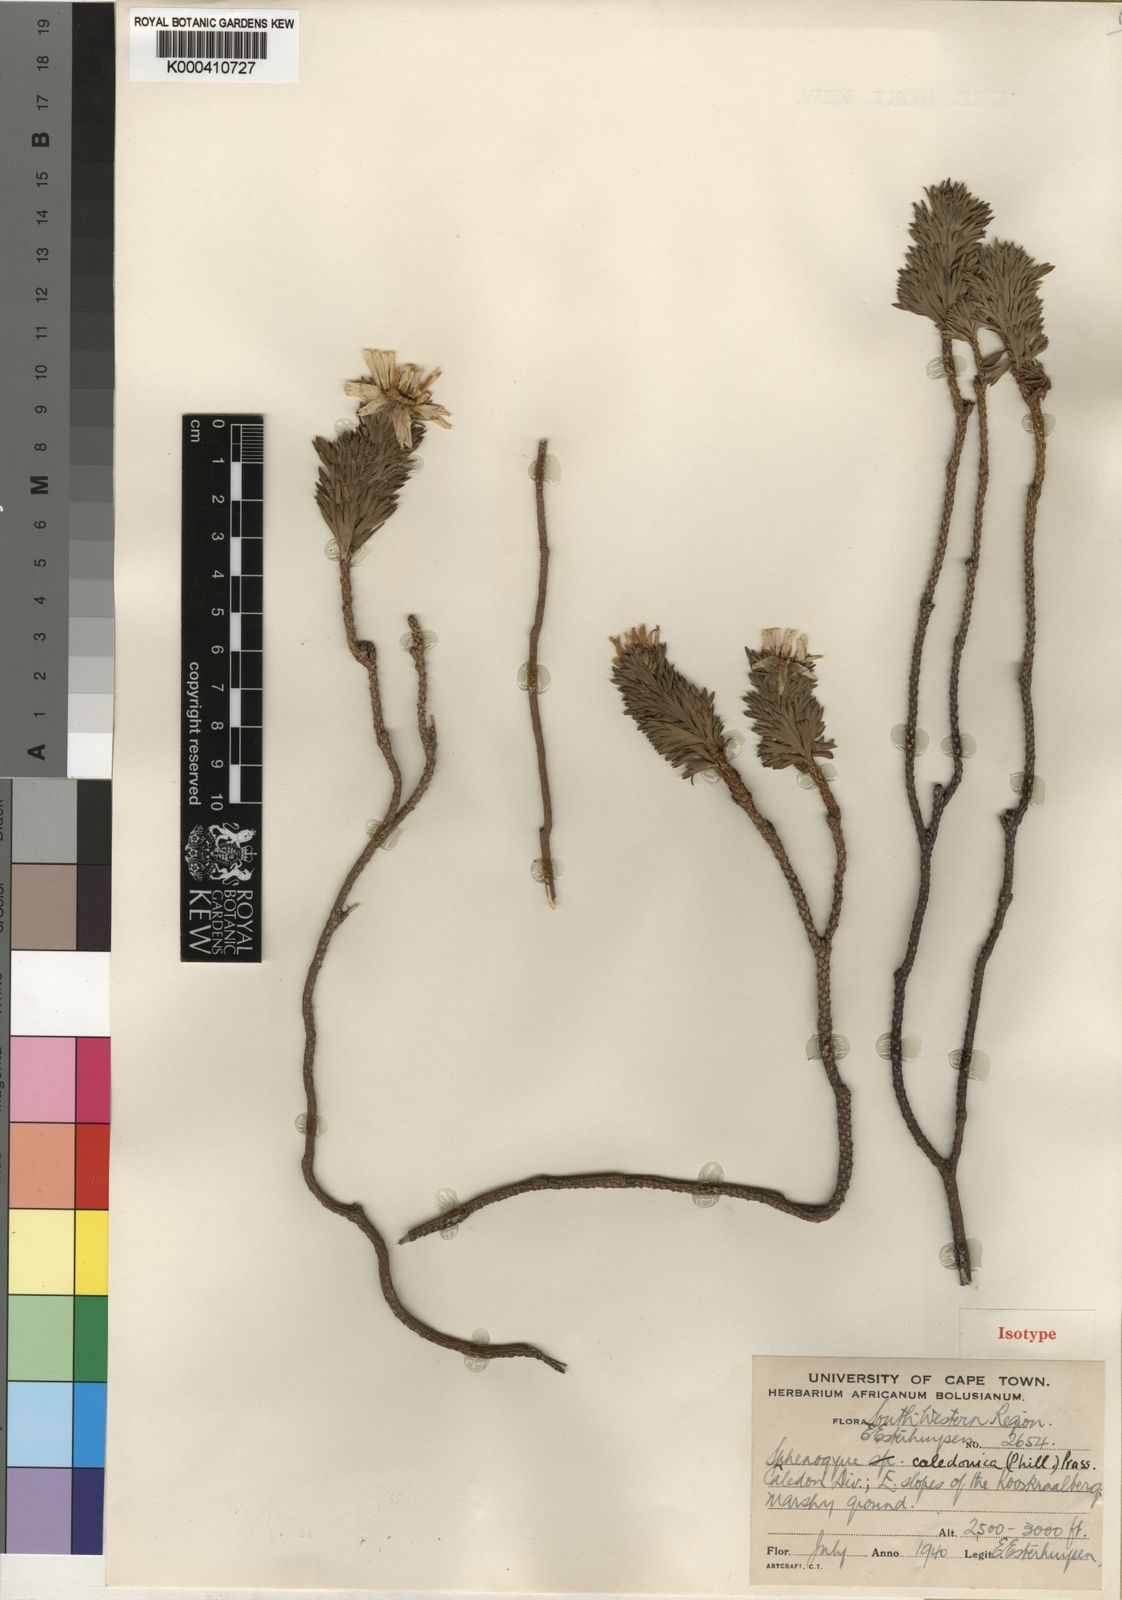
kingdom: Plantae
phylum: Tracheophyta
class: Magnoliopsida
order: Asterales
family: Asteraceae
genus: Ursinia
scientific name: Ursinia caledonica
